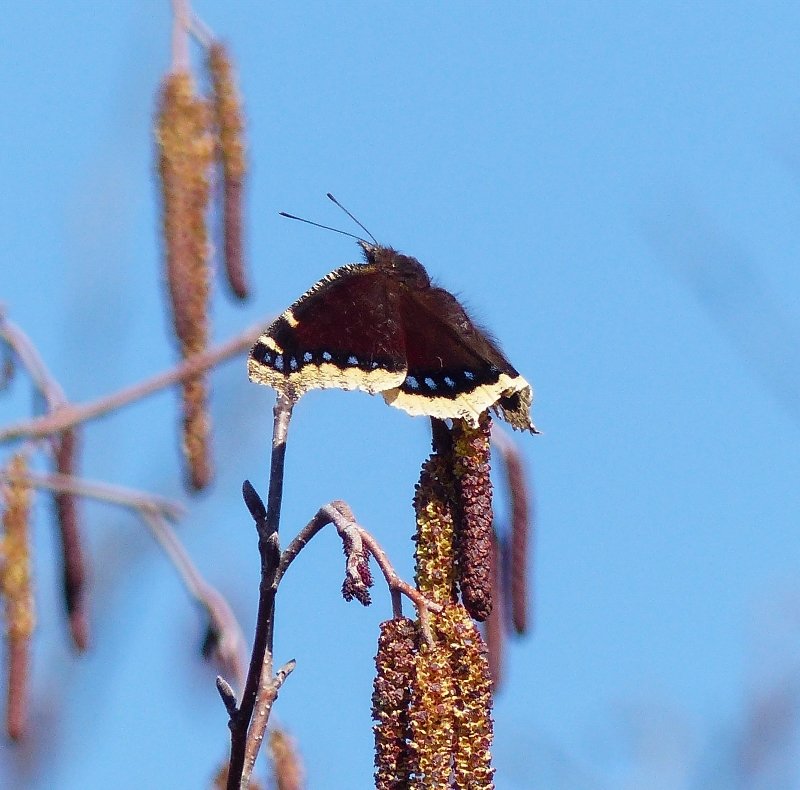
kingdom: Animalia
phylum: Arthropoda
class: Insecta
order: Lepidoptera
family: Nymphalidae
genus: Nymphalis
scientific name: Nymphalis antiopa
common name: Mourning Cloak
